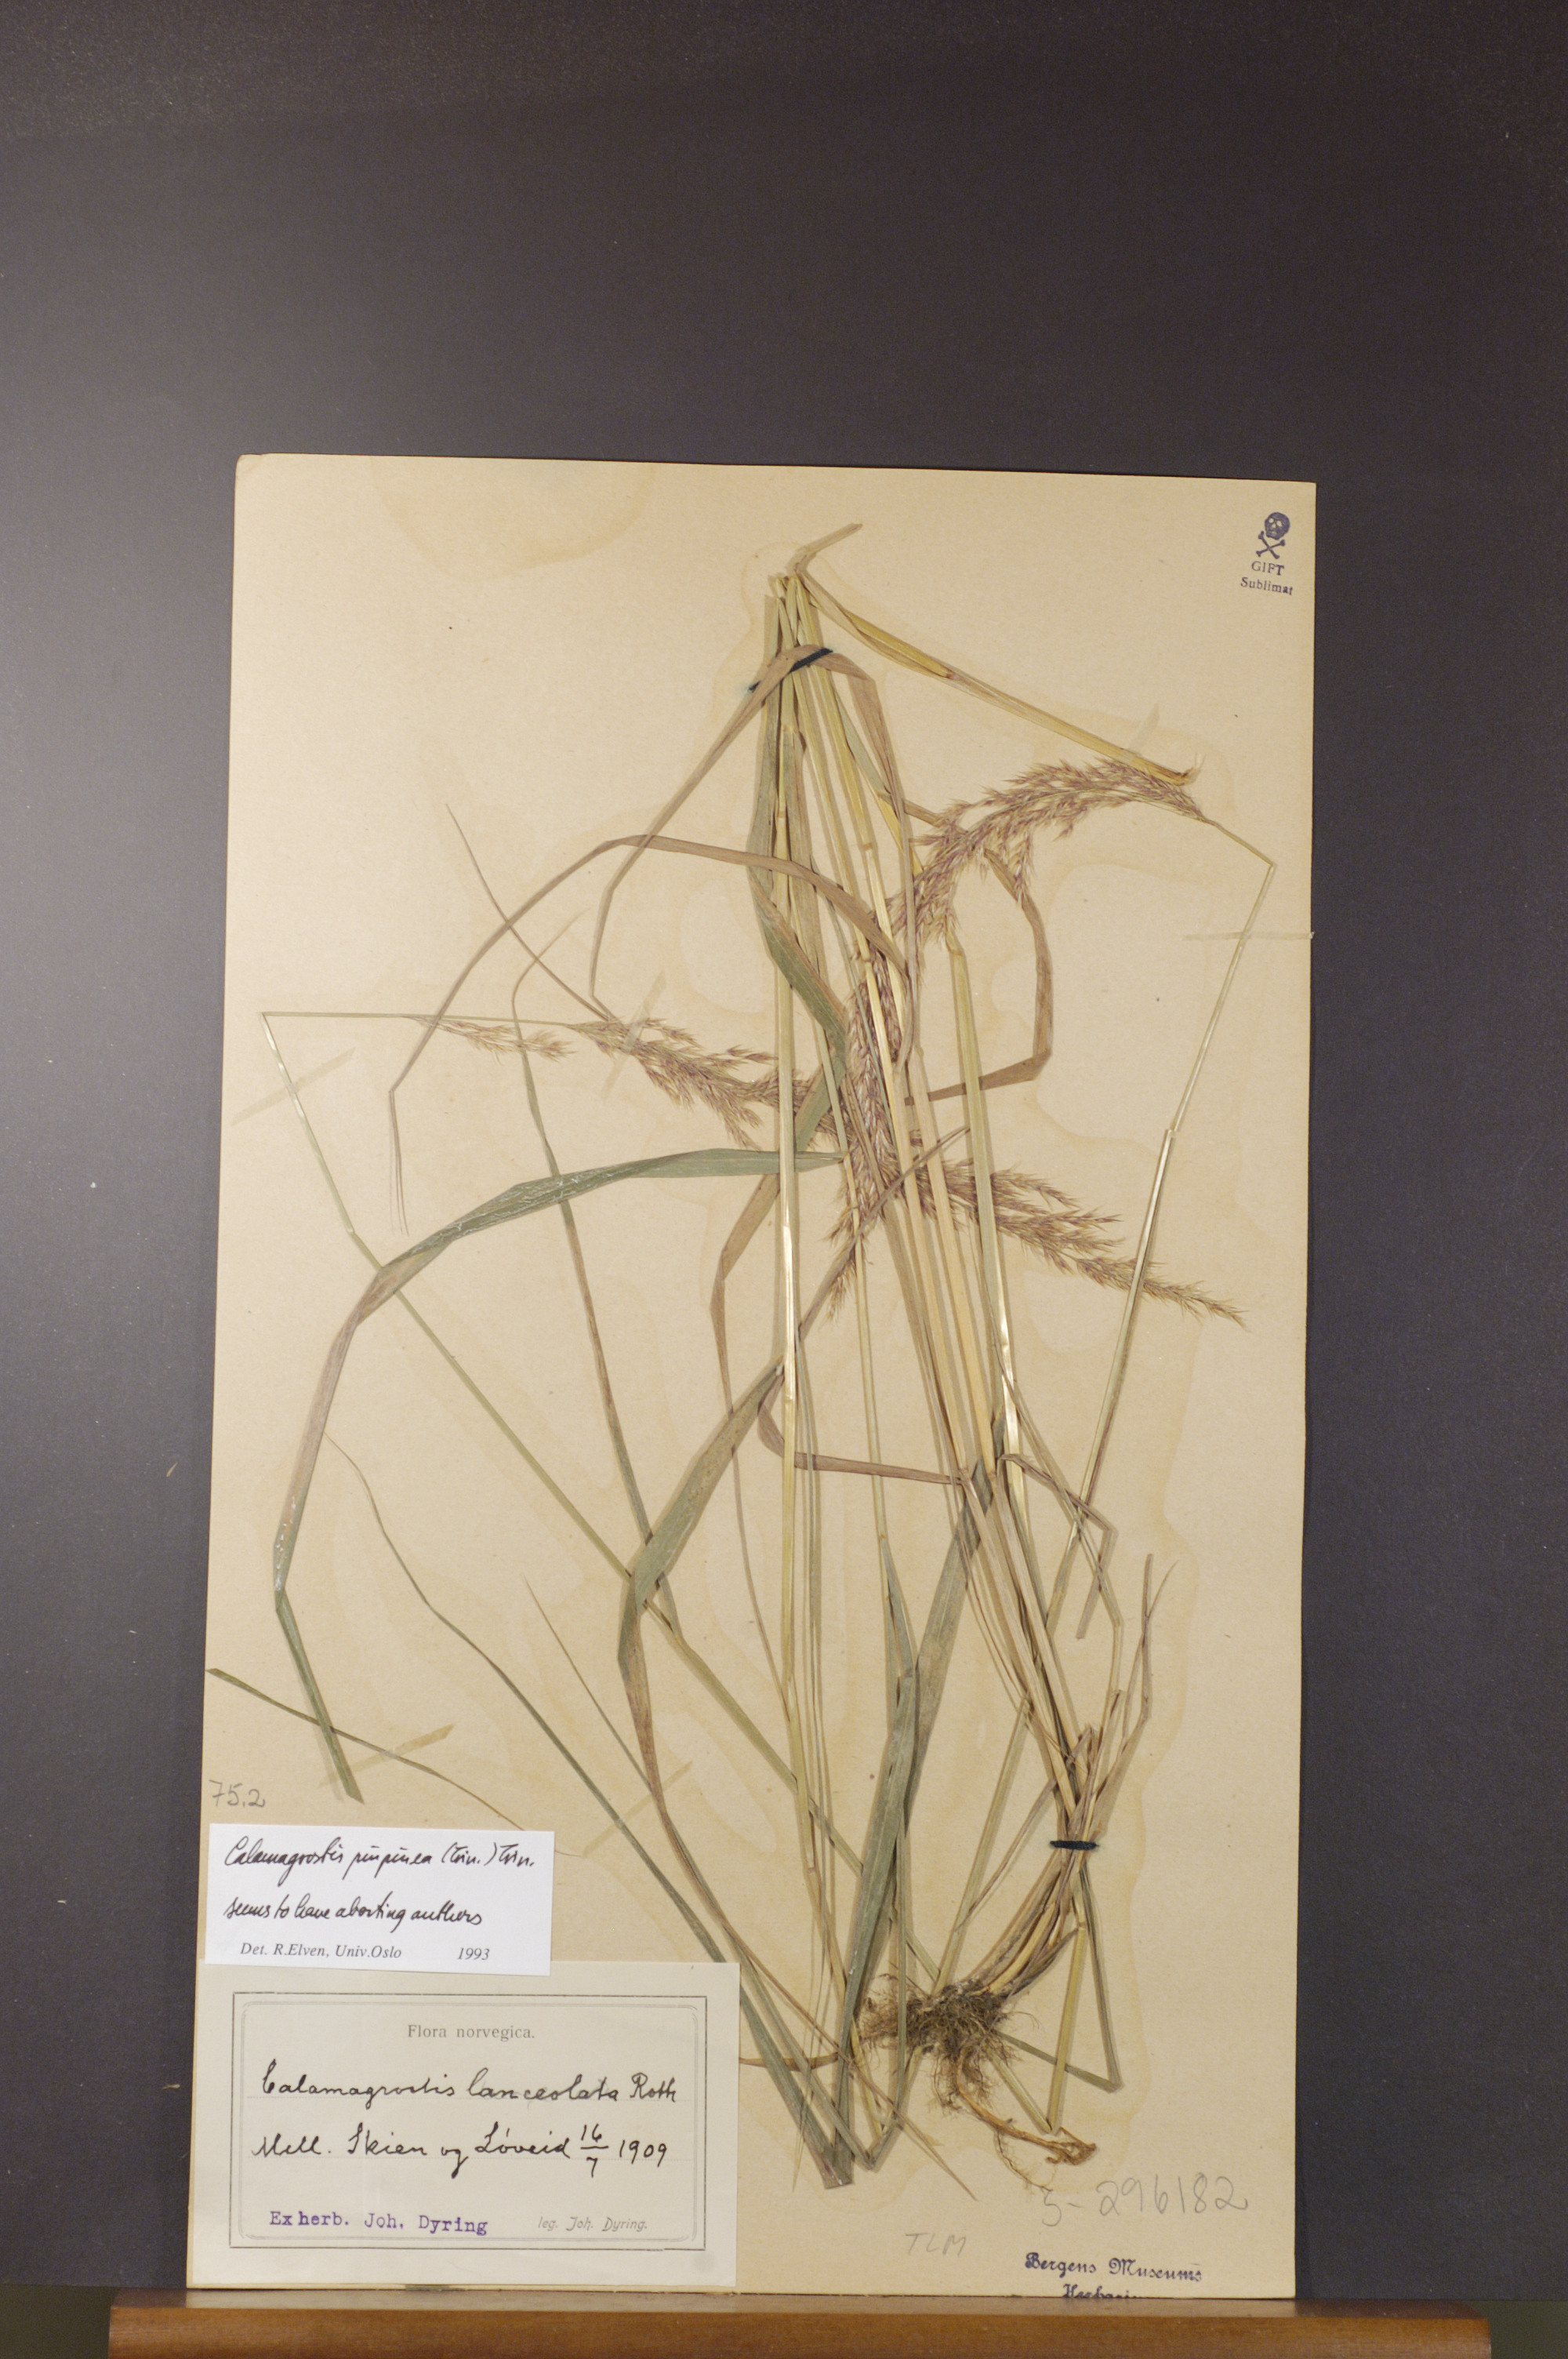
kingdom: Plantae
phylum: Tracheophyta
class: Liliopsida
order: Poales
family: Poaceae
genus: Calamagrostis
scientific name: Calamagrostis purpurea
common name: Scandinavian small-reed
